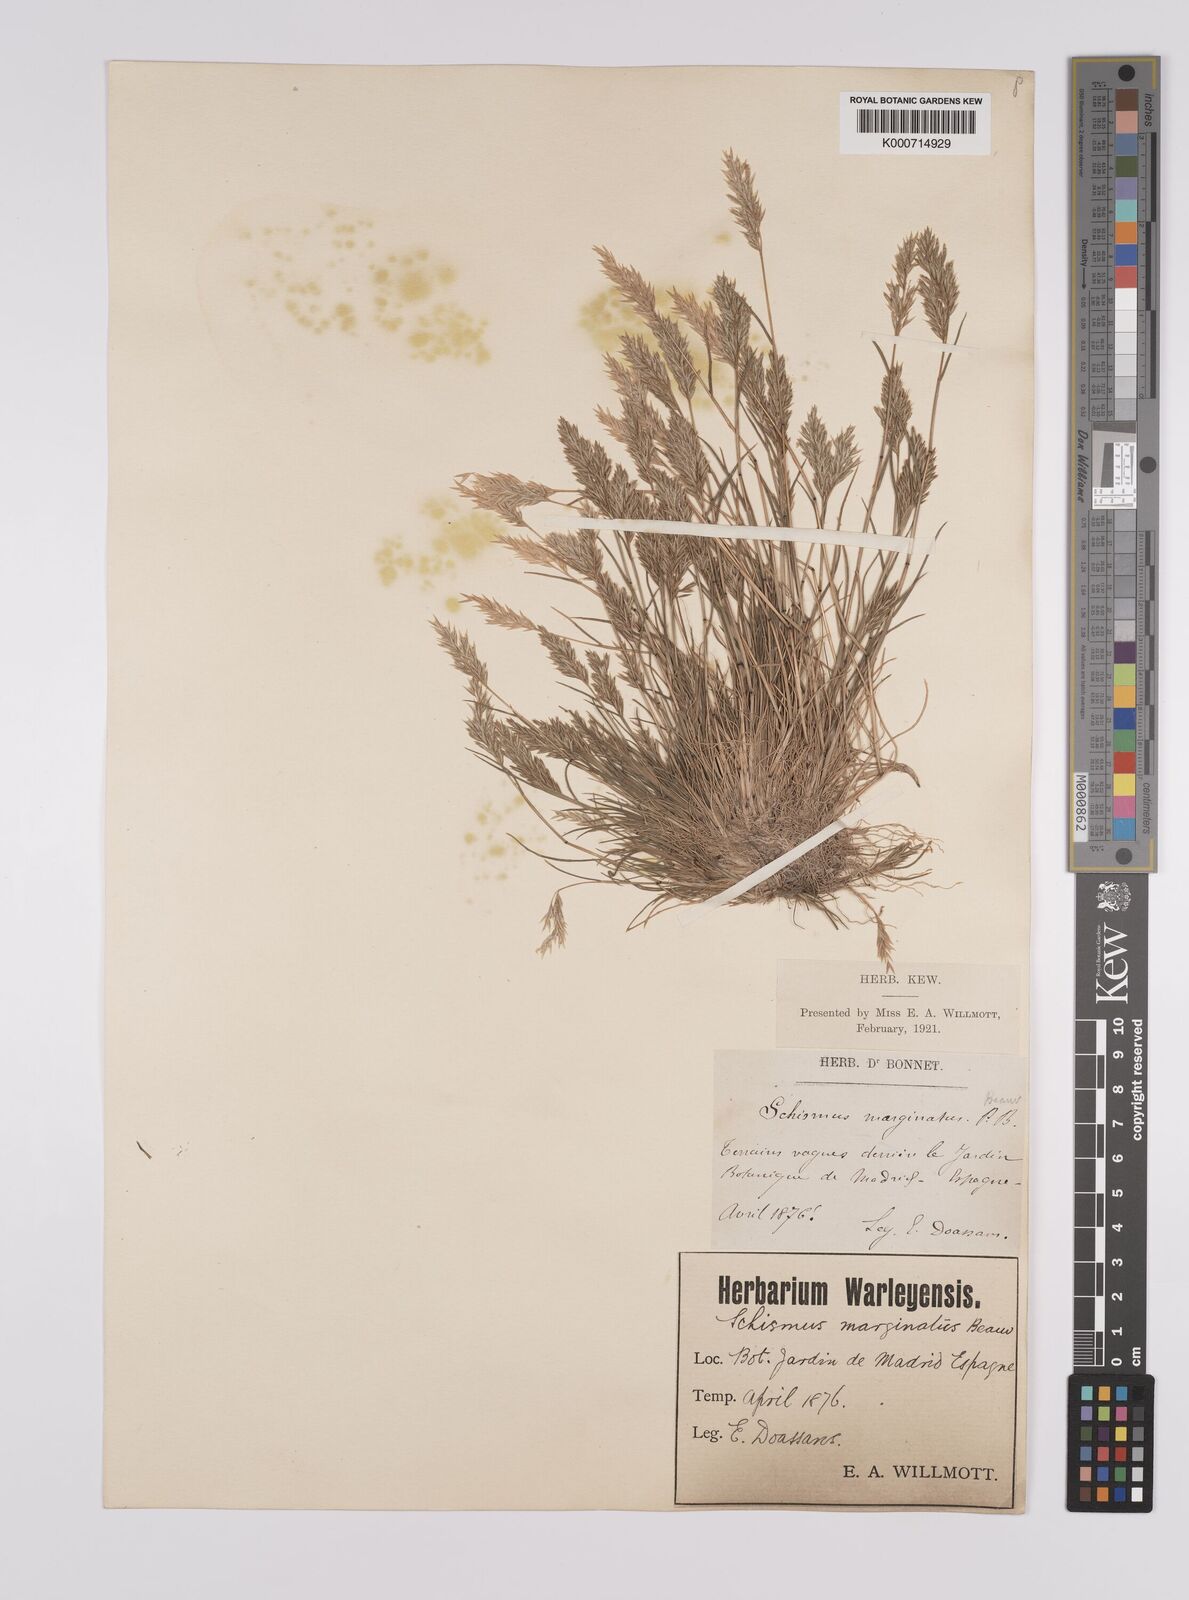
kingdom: Plantae
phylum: Tracheophyta
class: Liliopsida
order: Poales
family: Poaceae
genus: Schismus
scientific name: Schismus barbatus
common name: Kelch-grass
